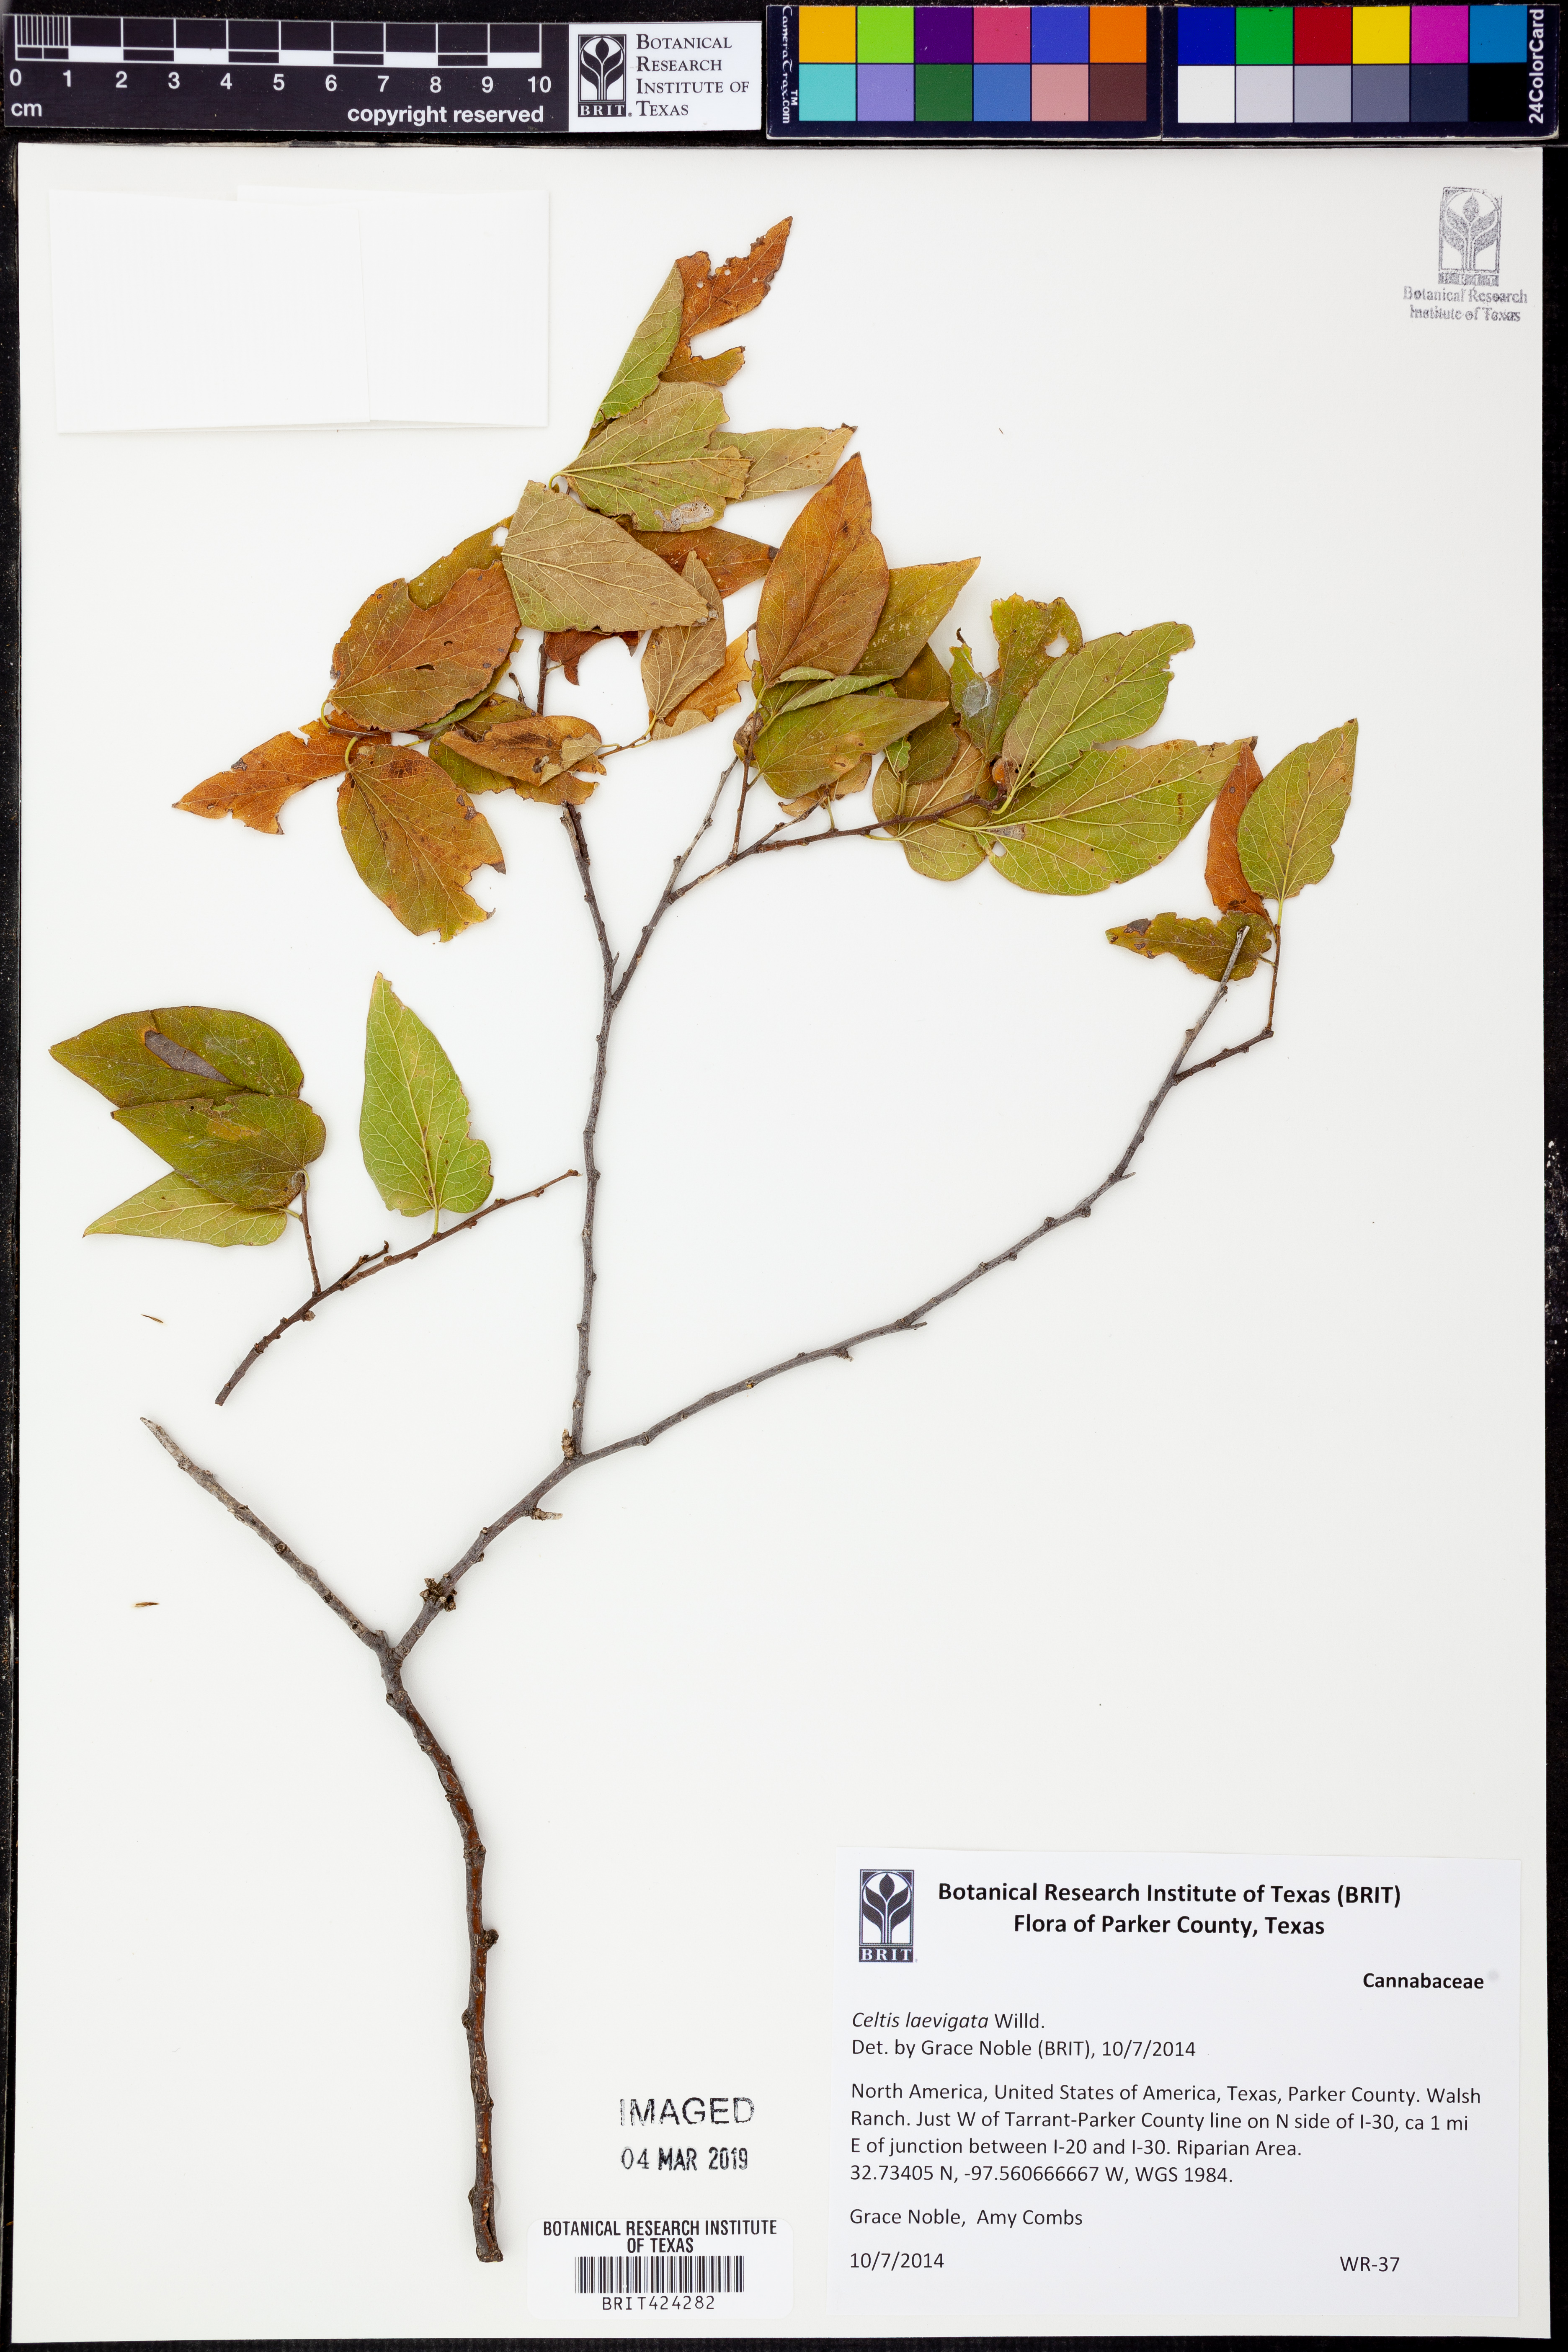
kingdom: Plantae
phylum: Tracheophyta
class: Magnoliopsida
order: Rosales
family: Cannabaceae
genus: Celtis
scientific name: Celtis laevigata
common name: Sugarberry
